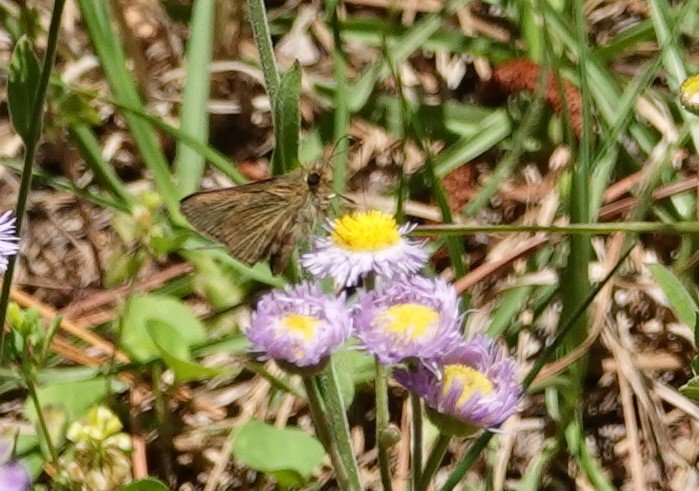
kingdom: Animalia
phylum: Arthropoda
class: Insecta
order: Lepidoptera
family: Hesperiidae
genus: Nastra
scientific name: Nastra lherminier
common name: Swarthy Skipper
